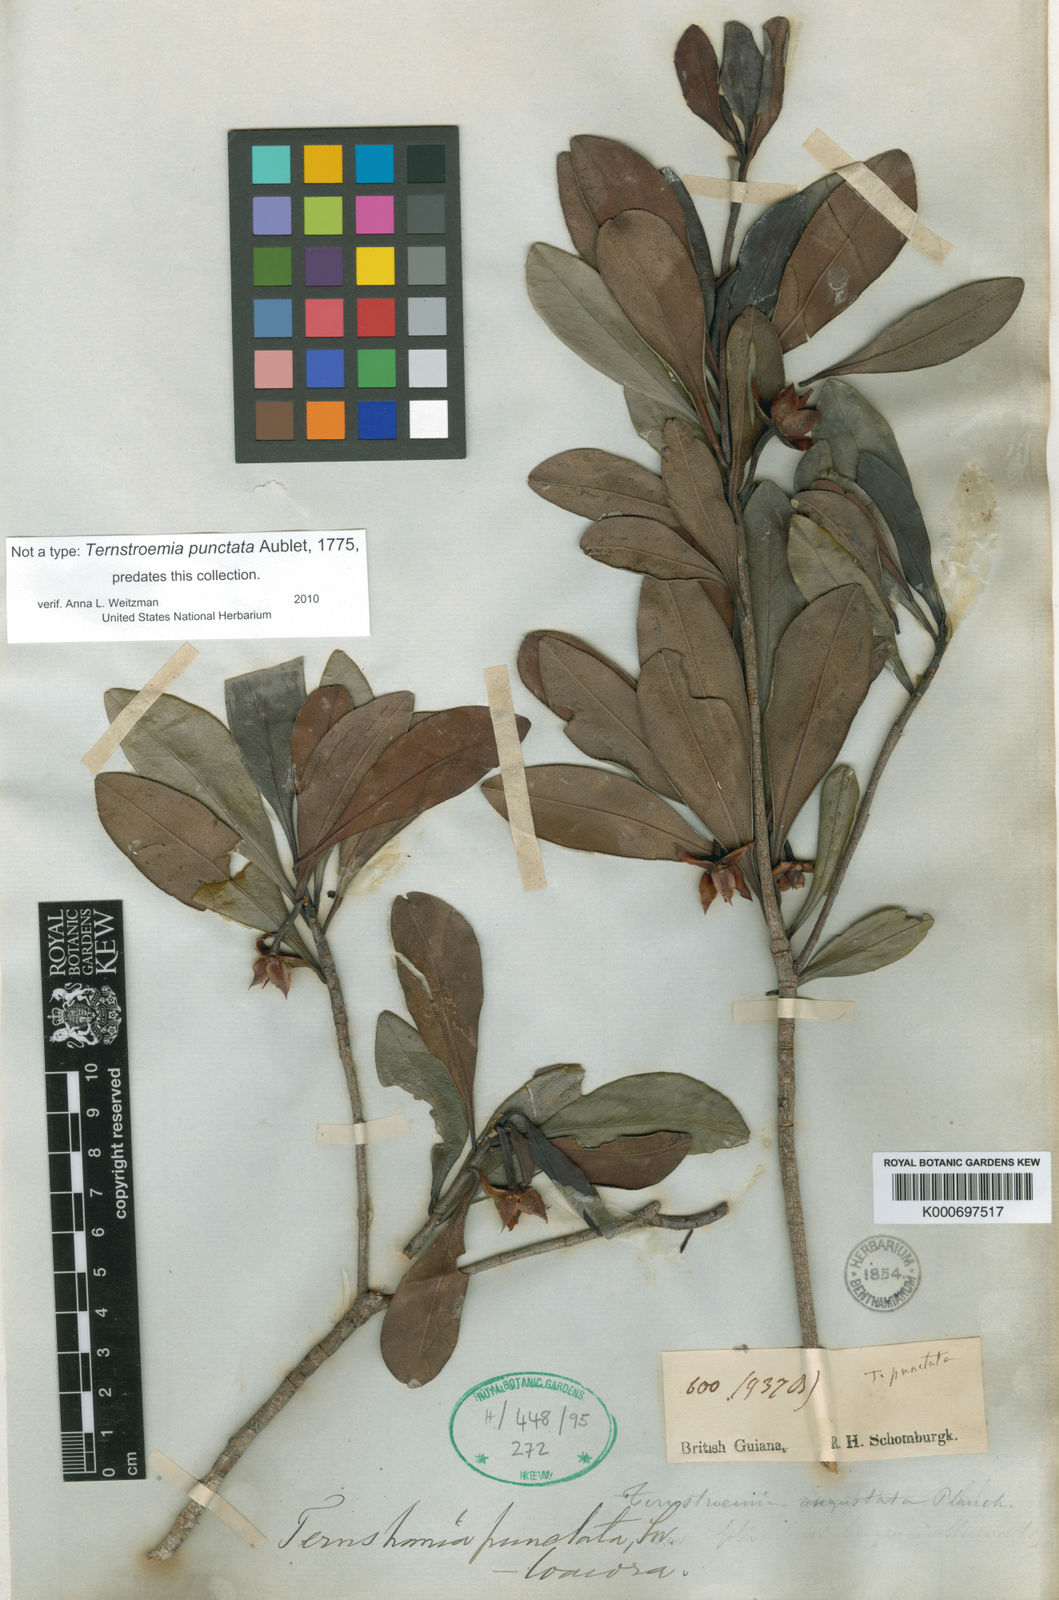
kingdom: Plantae
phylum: Tracheophyta
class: Magnoliopsida
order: Ericales
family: Pentaphylacaceae
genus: Ternstroemia
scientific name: Ternstroemia punctata
